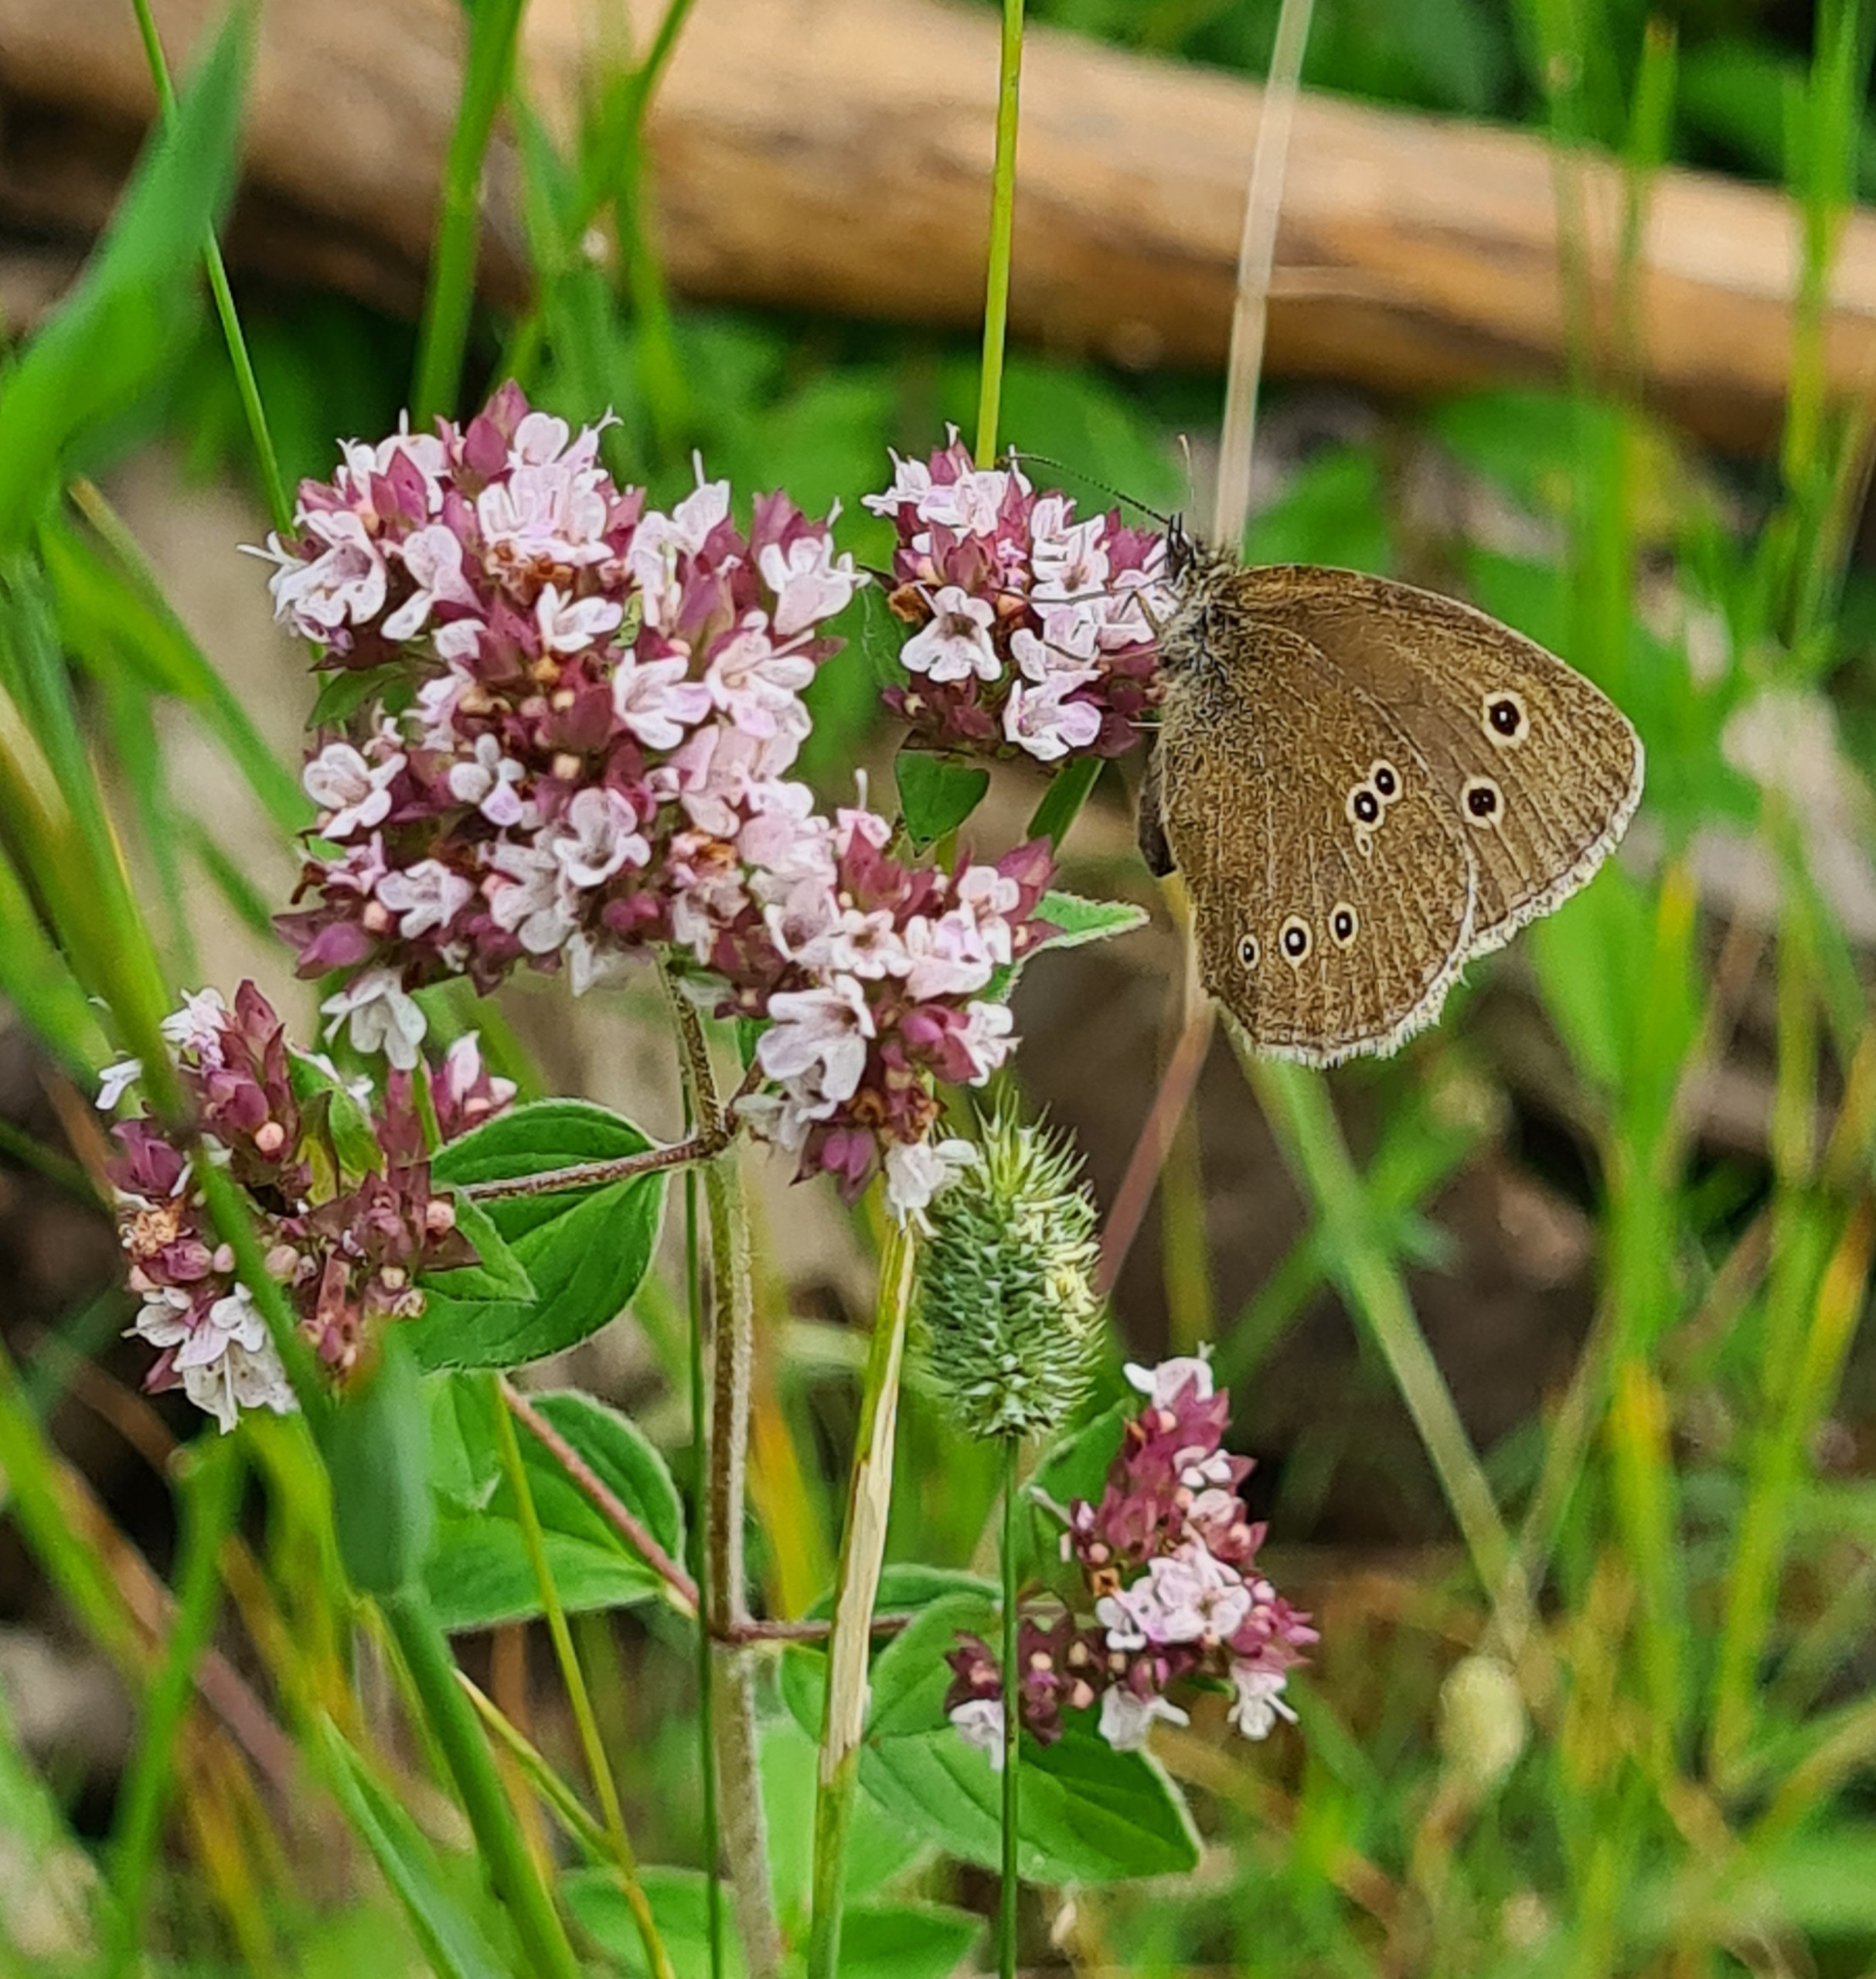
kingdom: Animalia
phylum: Arthropoda
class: Insecta
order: Lepidoptera
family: Nymphalidae
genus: Aphantopus
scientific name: Aphantopus hyperantus
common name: Engrandøje
